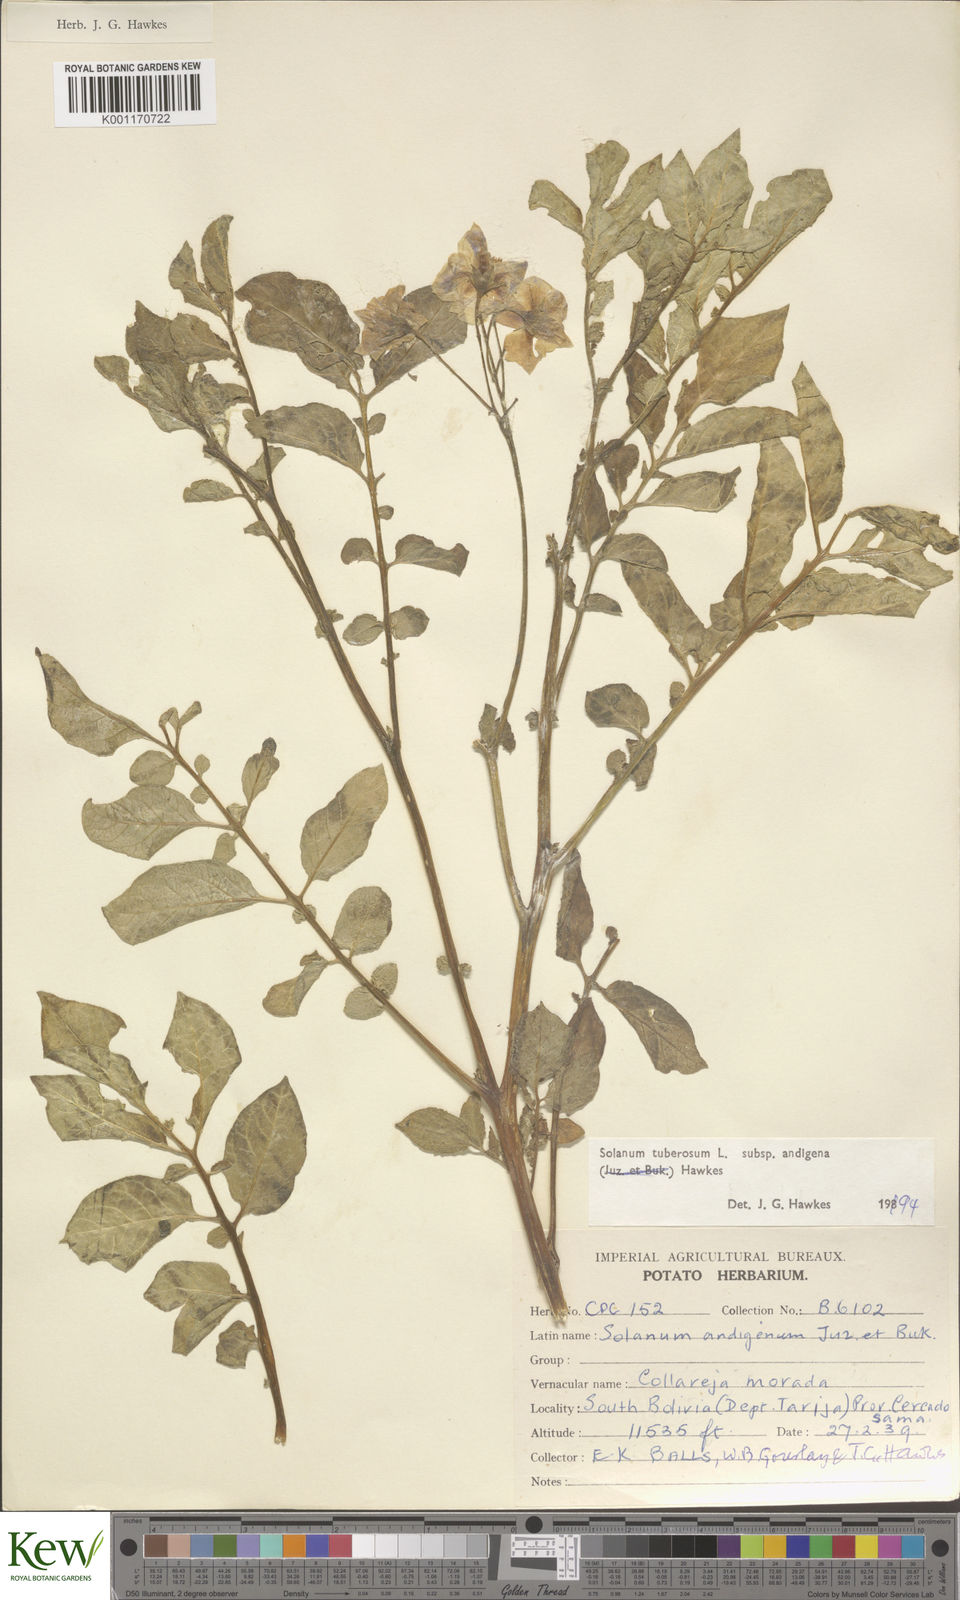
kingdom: Plantae
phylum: Tracheophyta
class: Magnoliopsida
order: Solanales
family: Solanaceae
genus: Solanum
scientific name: Solanum tuberosum
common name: Potato
